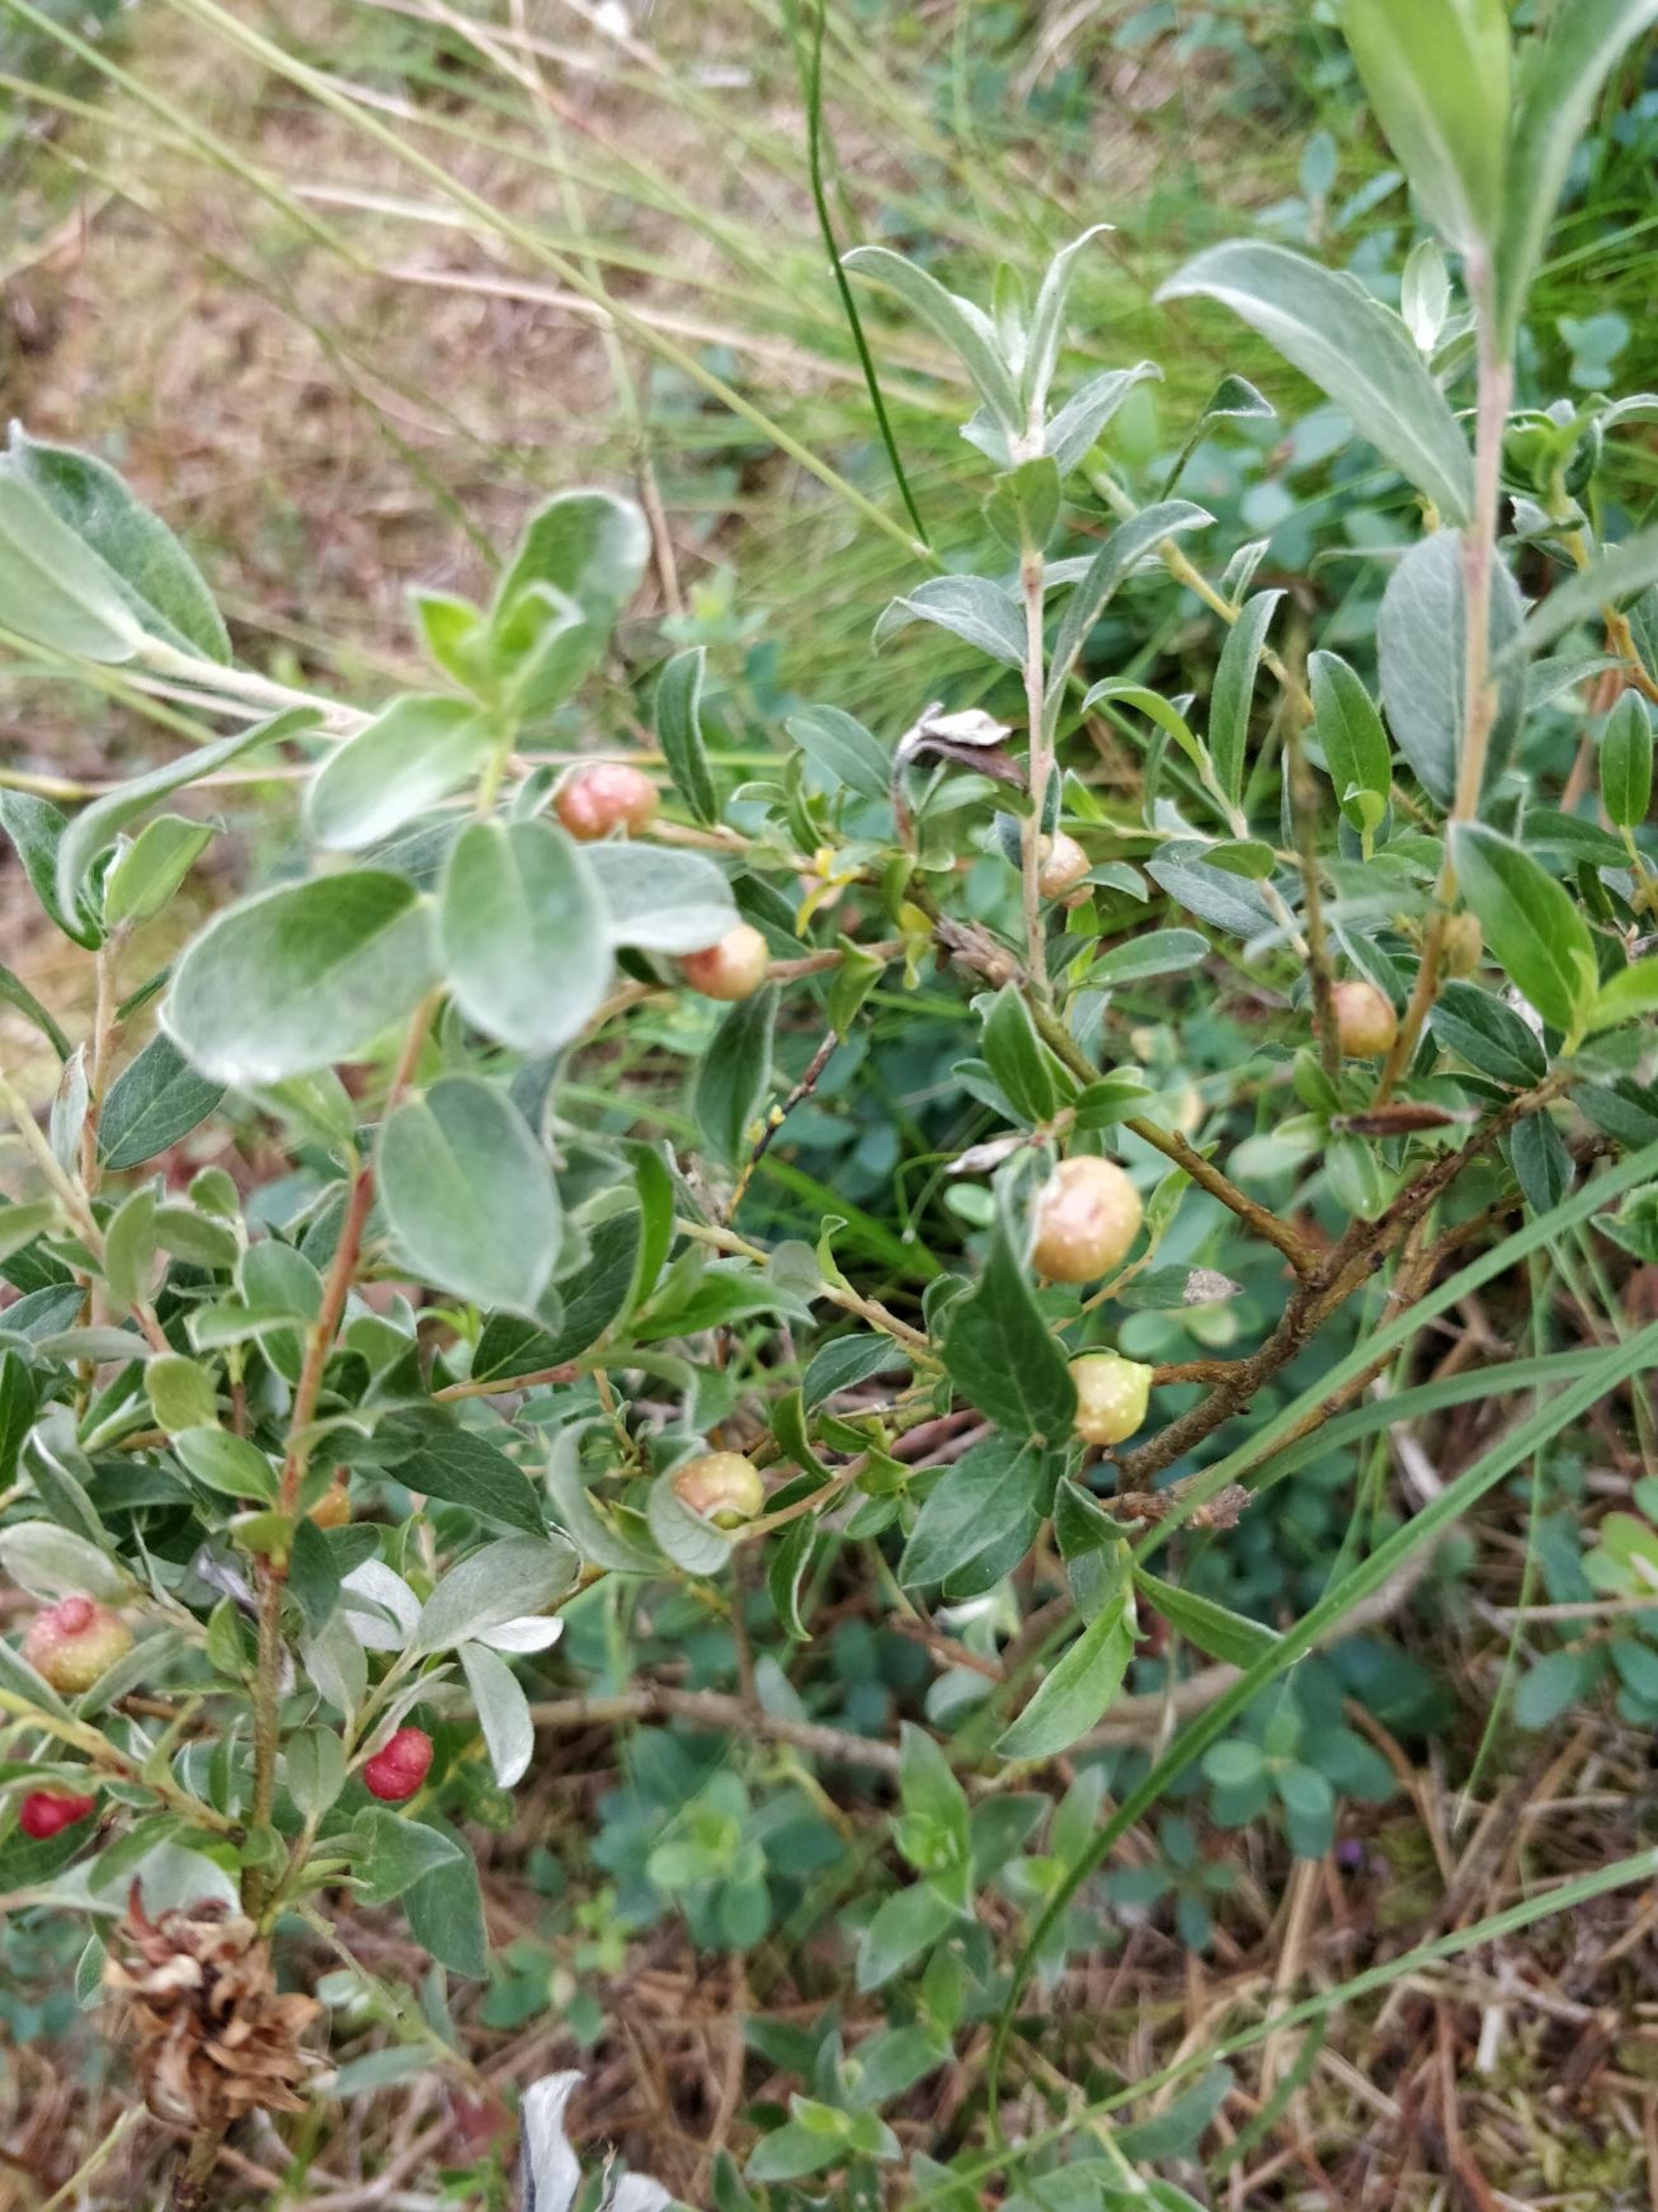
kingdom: Plantae
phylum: Tracheophyta
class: Magnoliopsida
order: Ericales
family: Ericaceae
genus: Vaccinium
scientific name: Vaccinium uliginosum
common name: Mose-bølle
